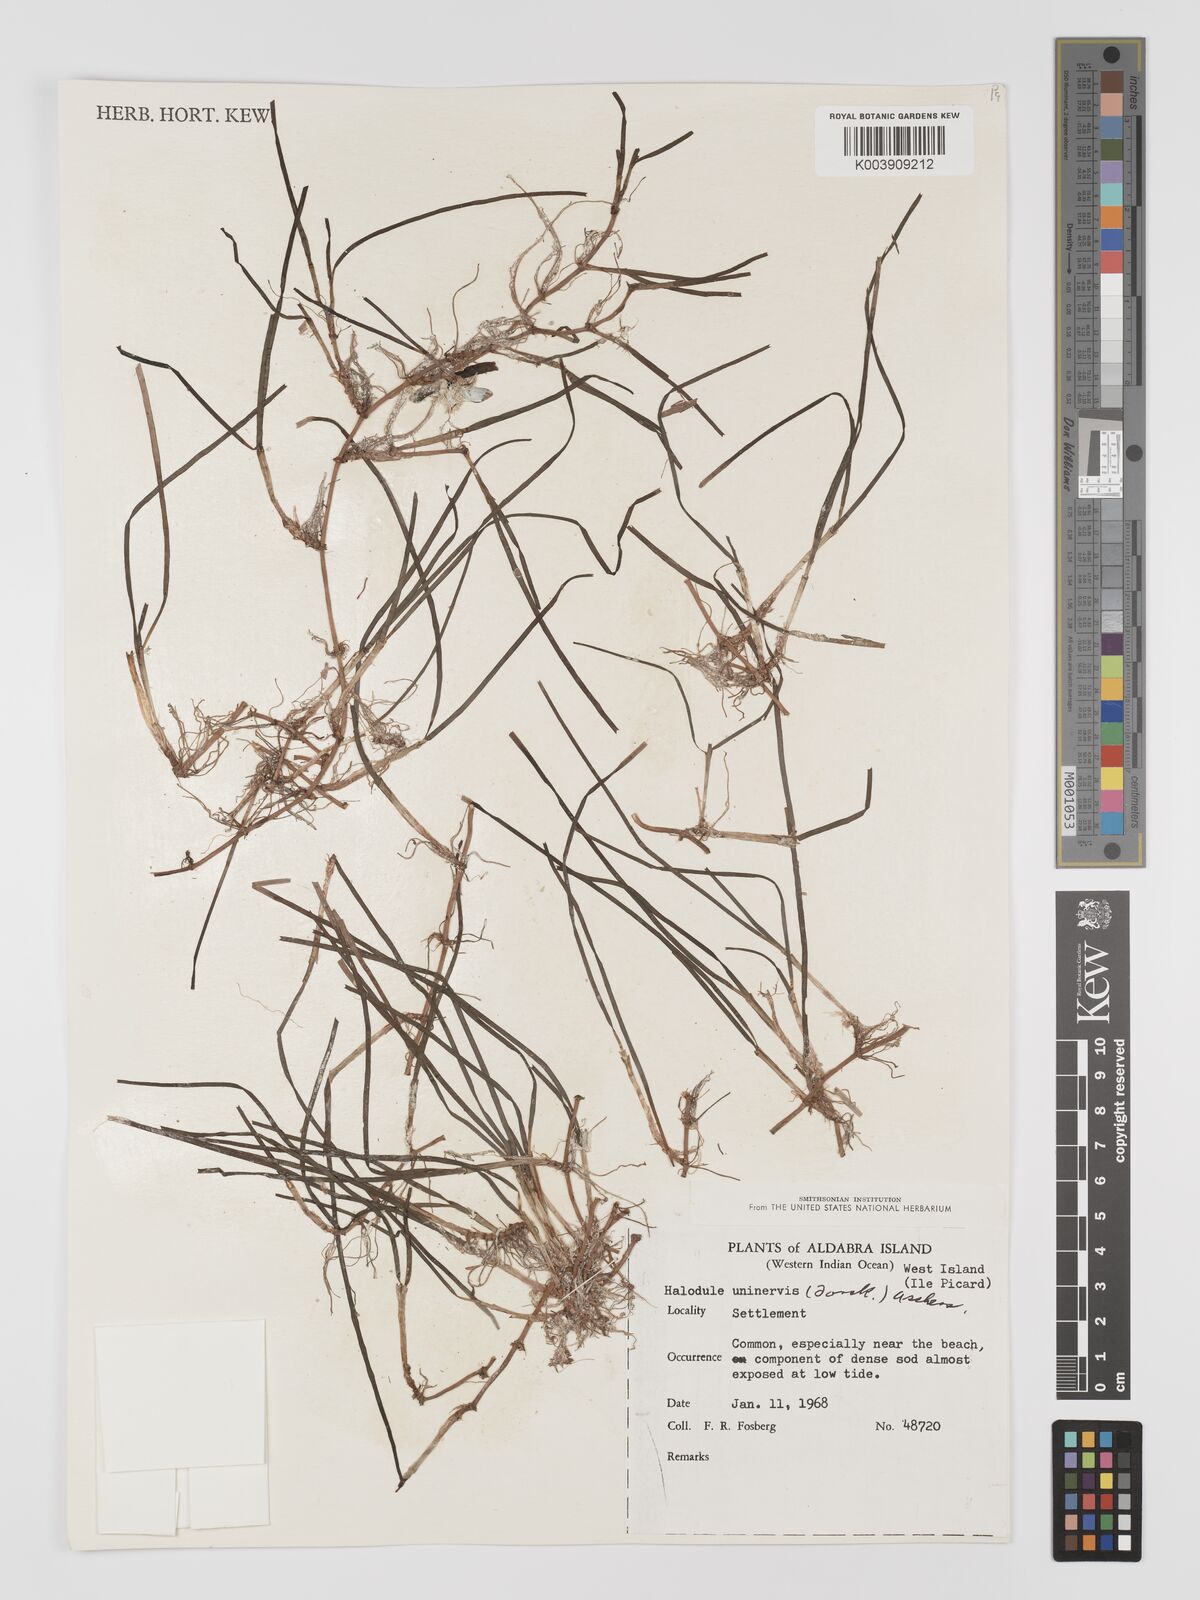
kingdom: Plantae
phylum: Tracheophyta
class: Liliopsida
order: Alismatales
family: Cymodoceaceae
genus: Halodule
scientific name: Halodule uninervis
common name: Narrowleaf seagrass
